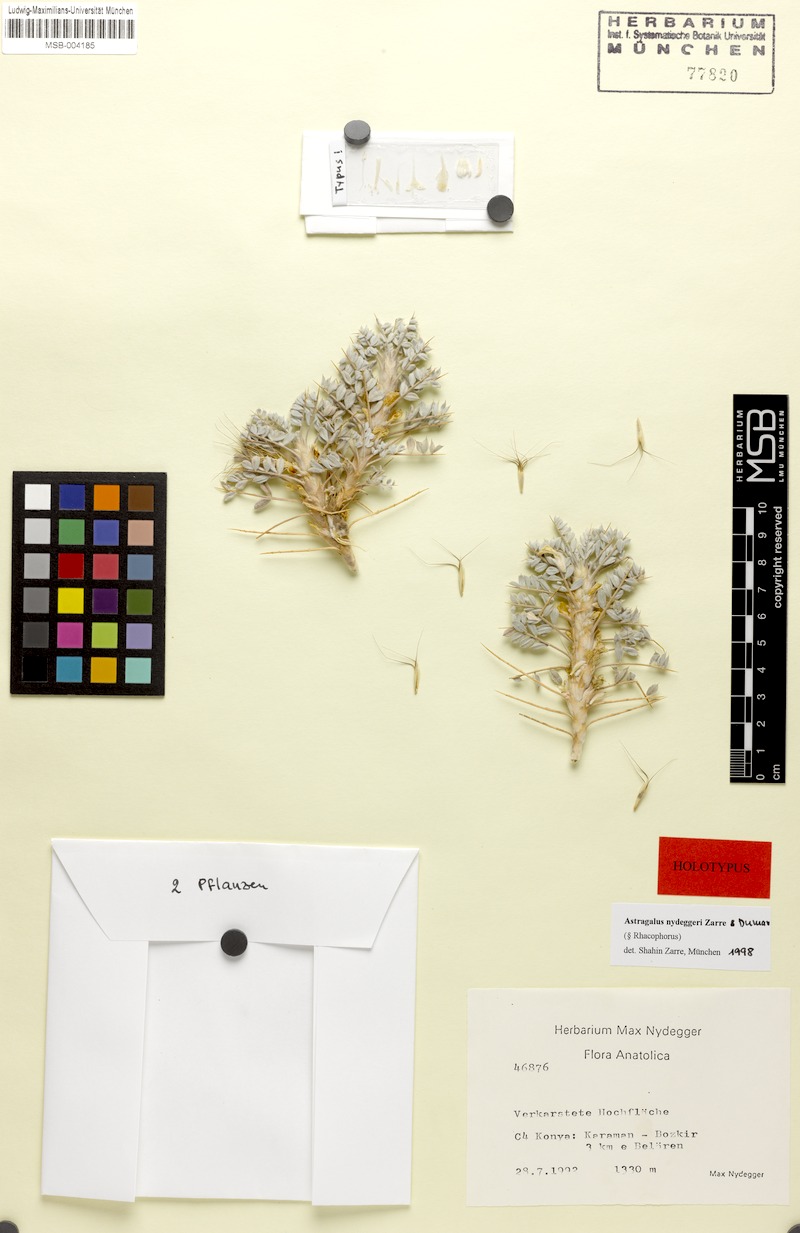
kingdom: Plantae
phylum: Tracheophyta
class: Magnoliopsida
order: Fabales
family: Fabaceae
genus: Astragalus
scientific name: Astragalus nydeggeri
